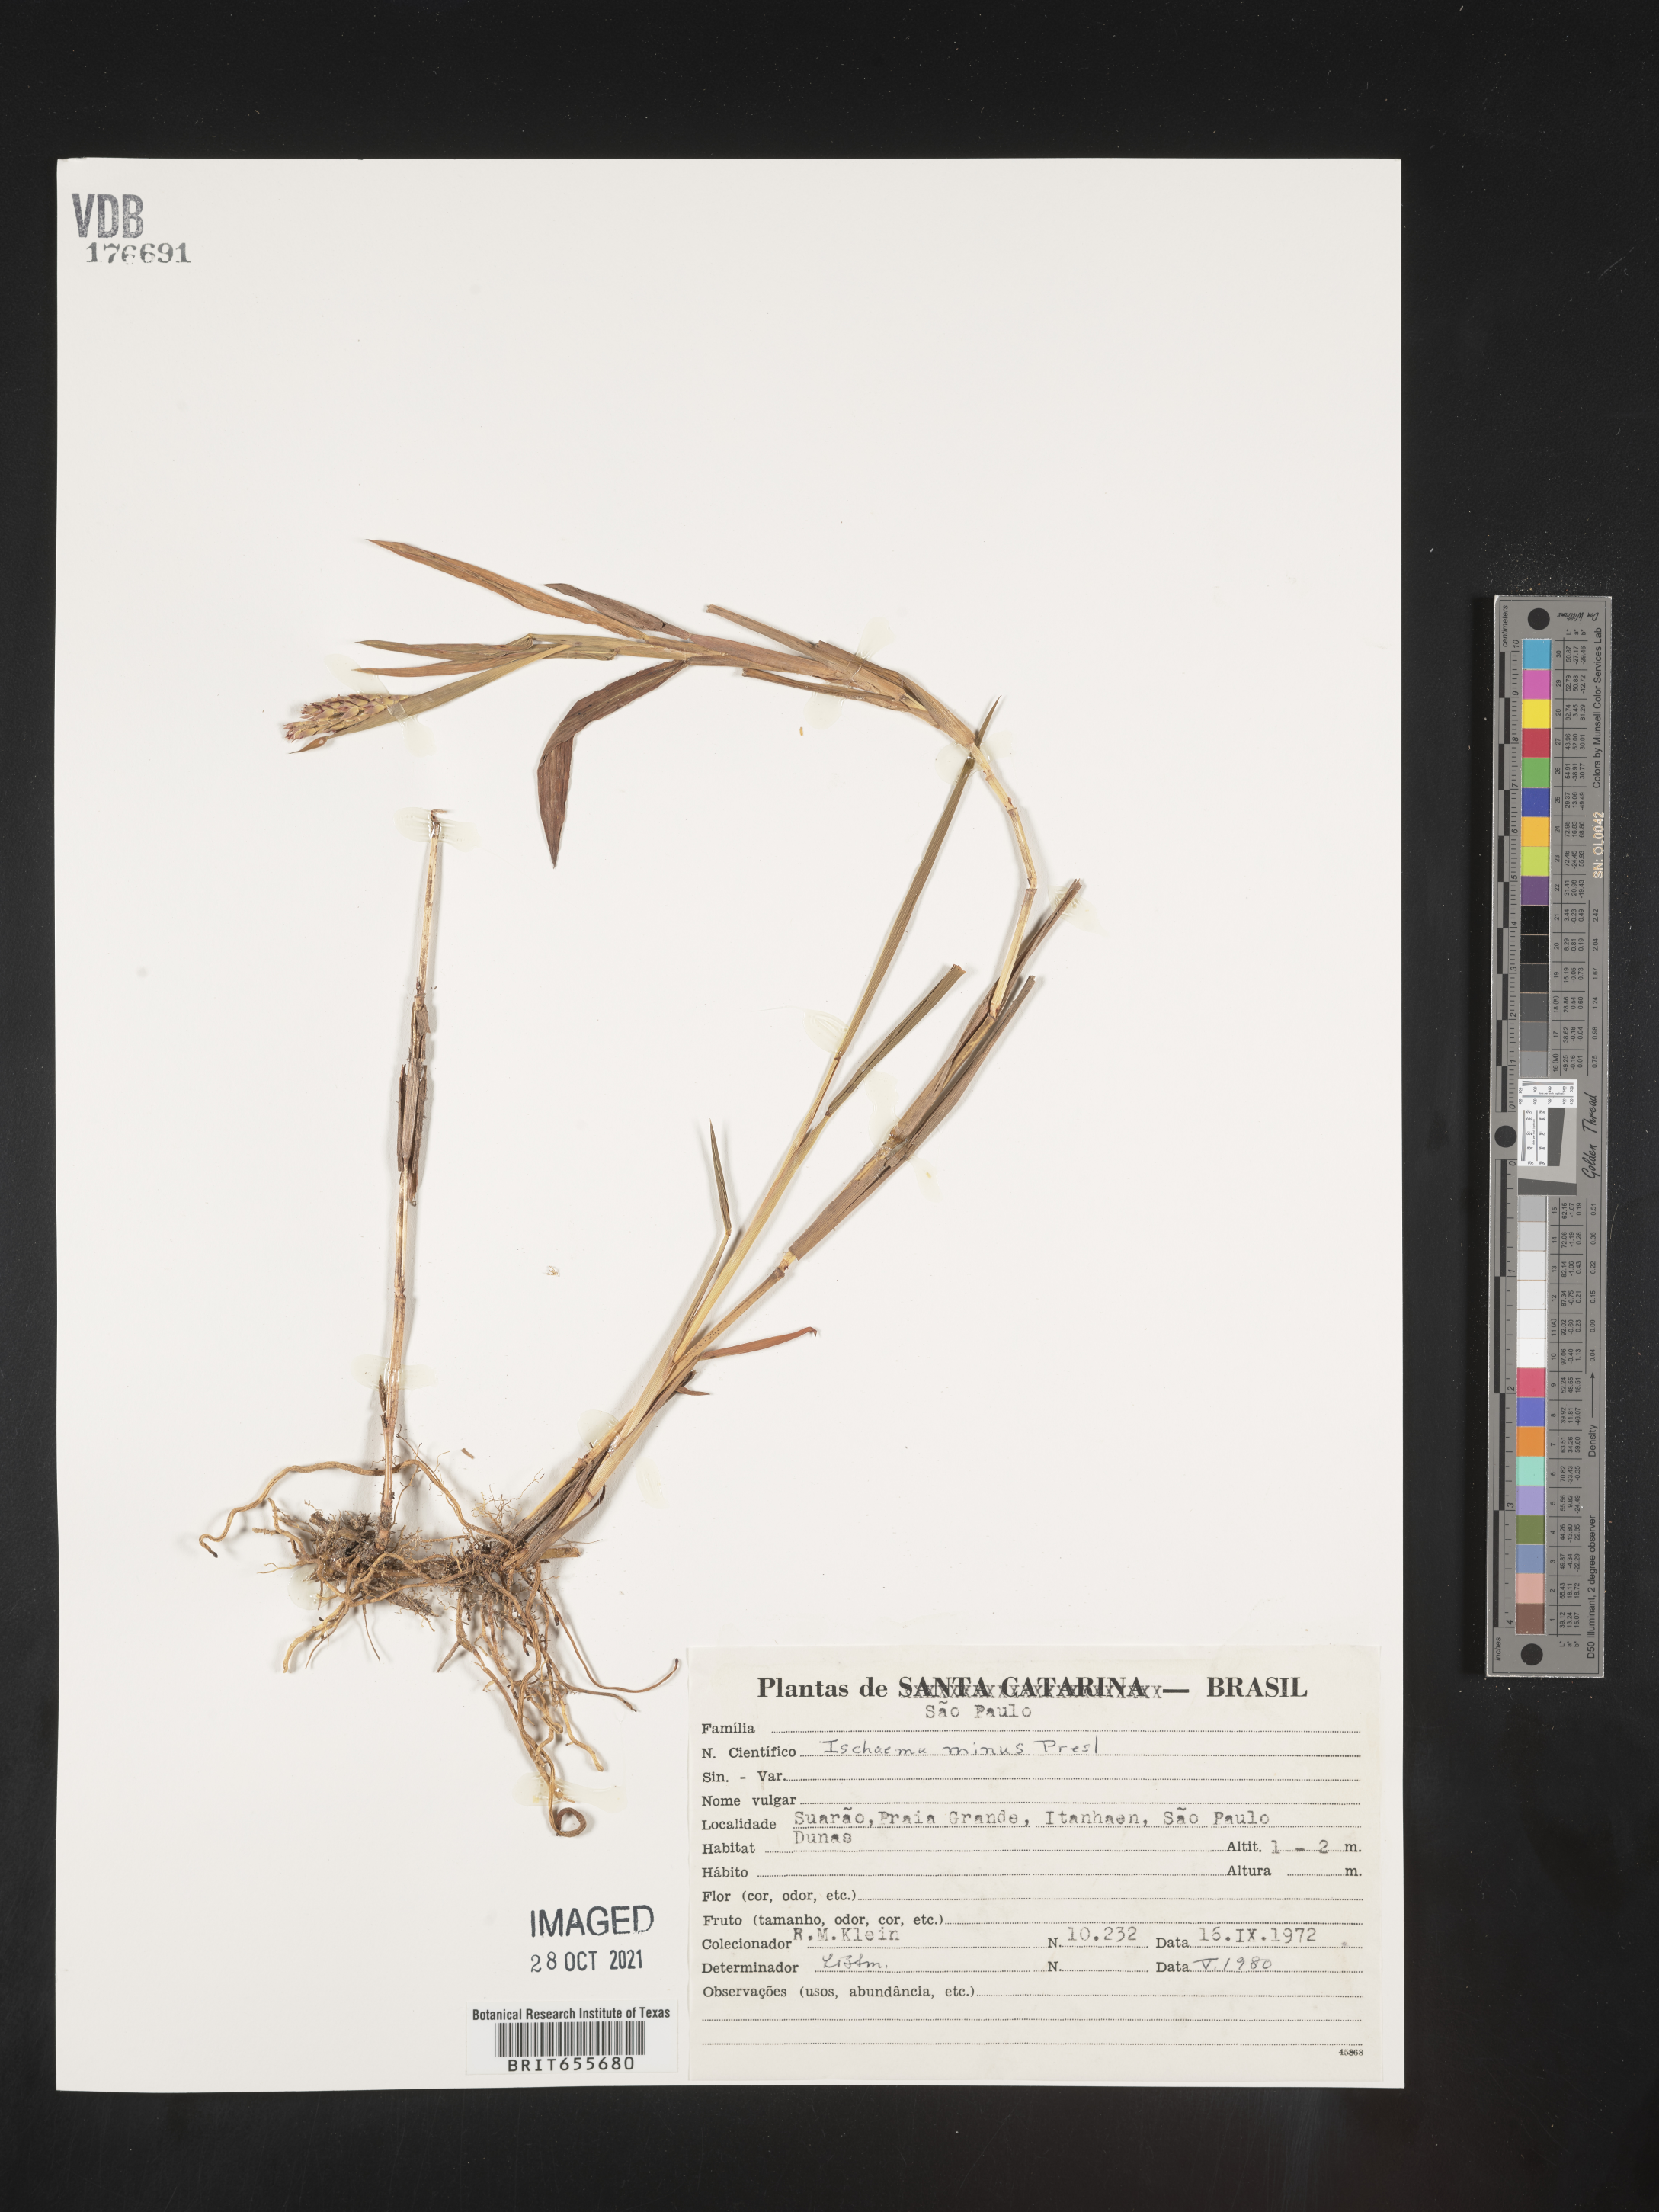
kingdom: Plantae
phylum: Tracheophyta
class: Liliopsida
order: Poales
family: Poaceae
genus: Ischaemum
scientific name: Ischaemum
